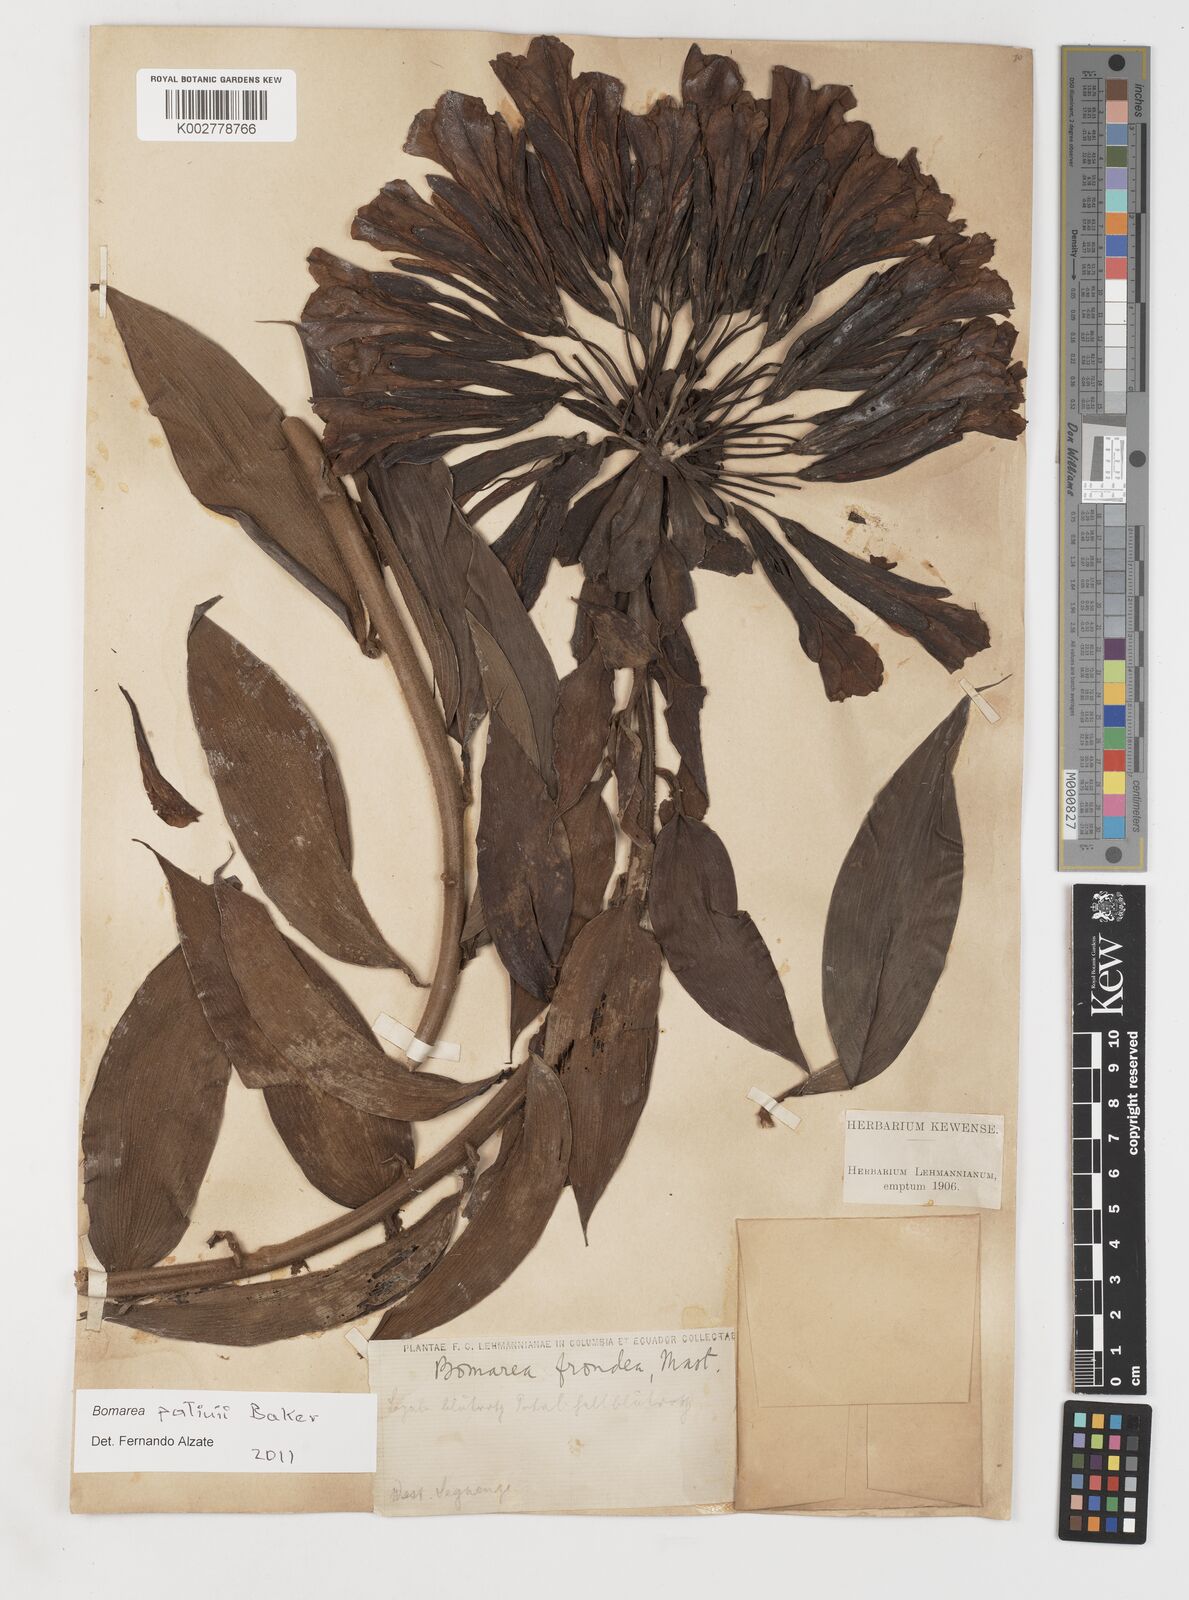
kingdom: Plantae
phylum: Tracheophyta
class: Liliopsida
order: Liliales
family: Alstroemeriaceae
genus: Bomarea
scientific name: Bomarea patinii
